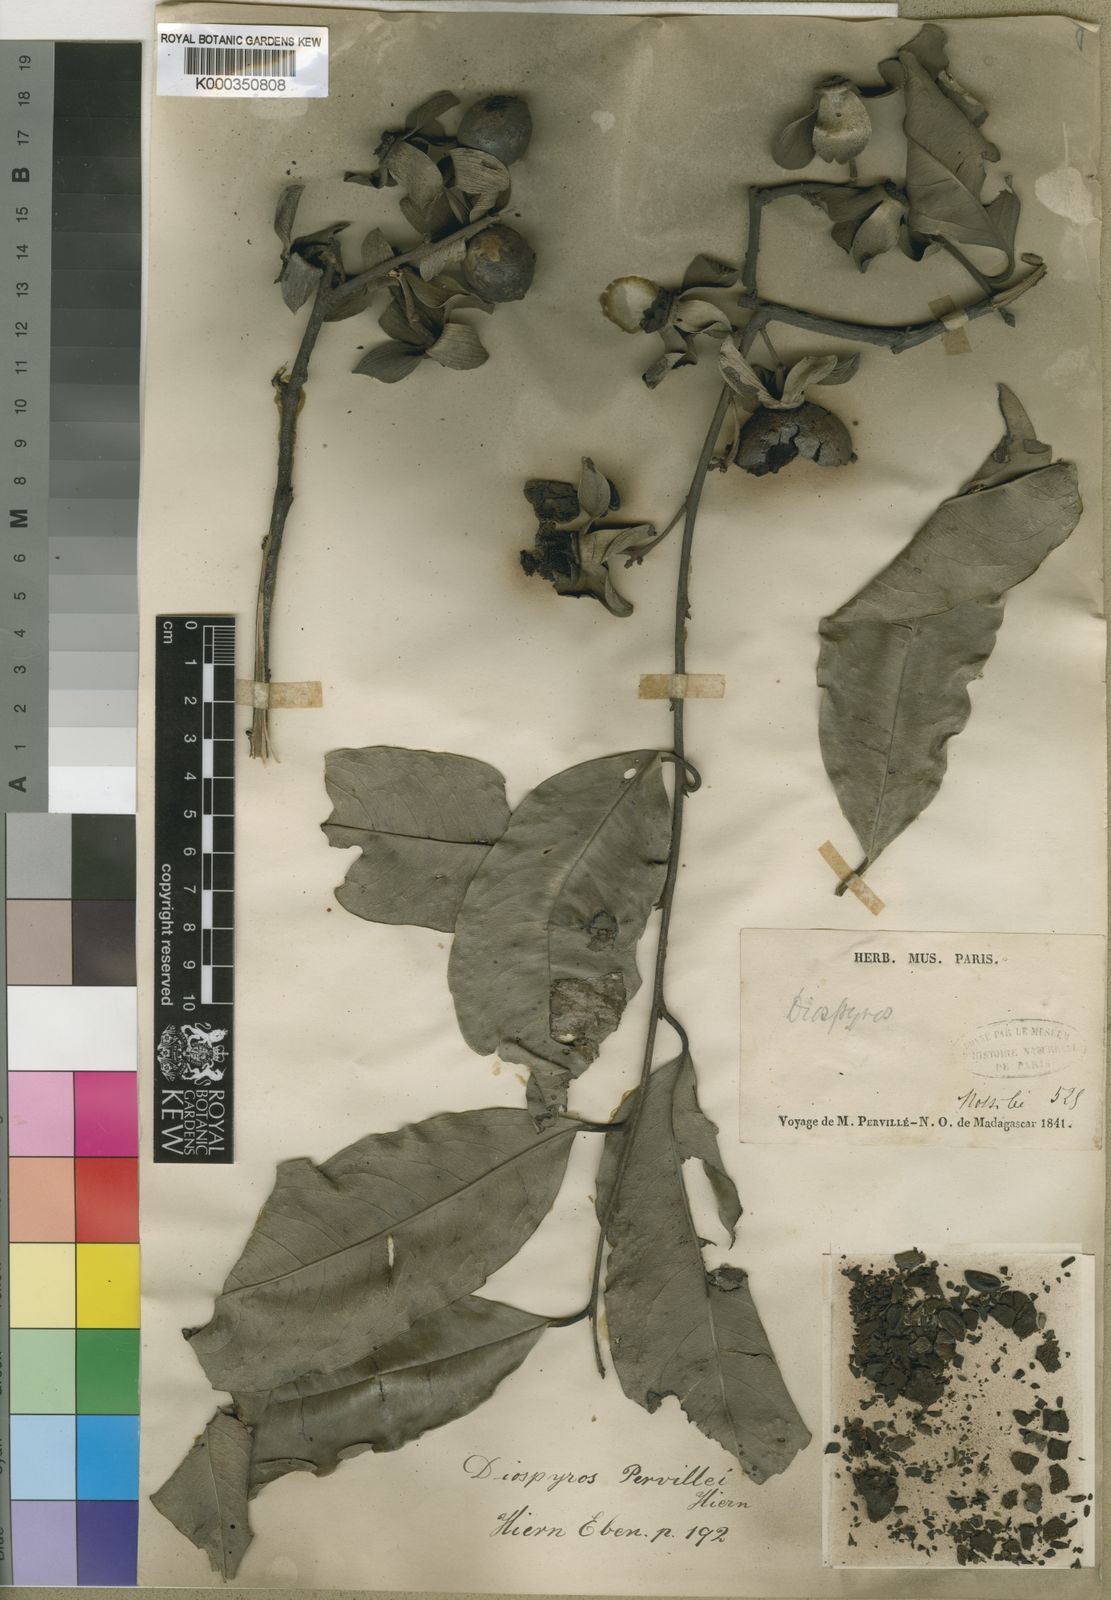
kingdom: Plantae
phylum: Tracheophyta
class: Magnoliopsida
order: Ericales
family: Ebenaceae
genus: Diospyros
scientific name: Diospyros pervillei
